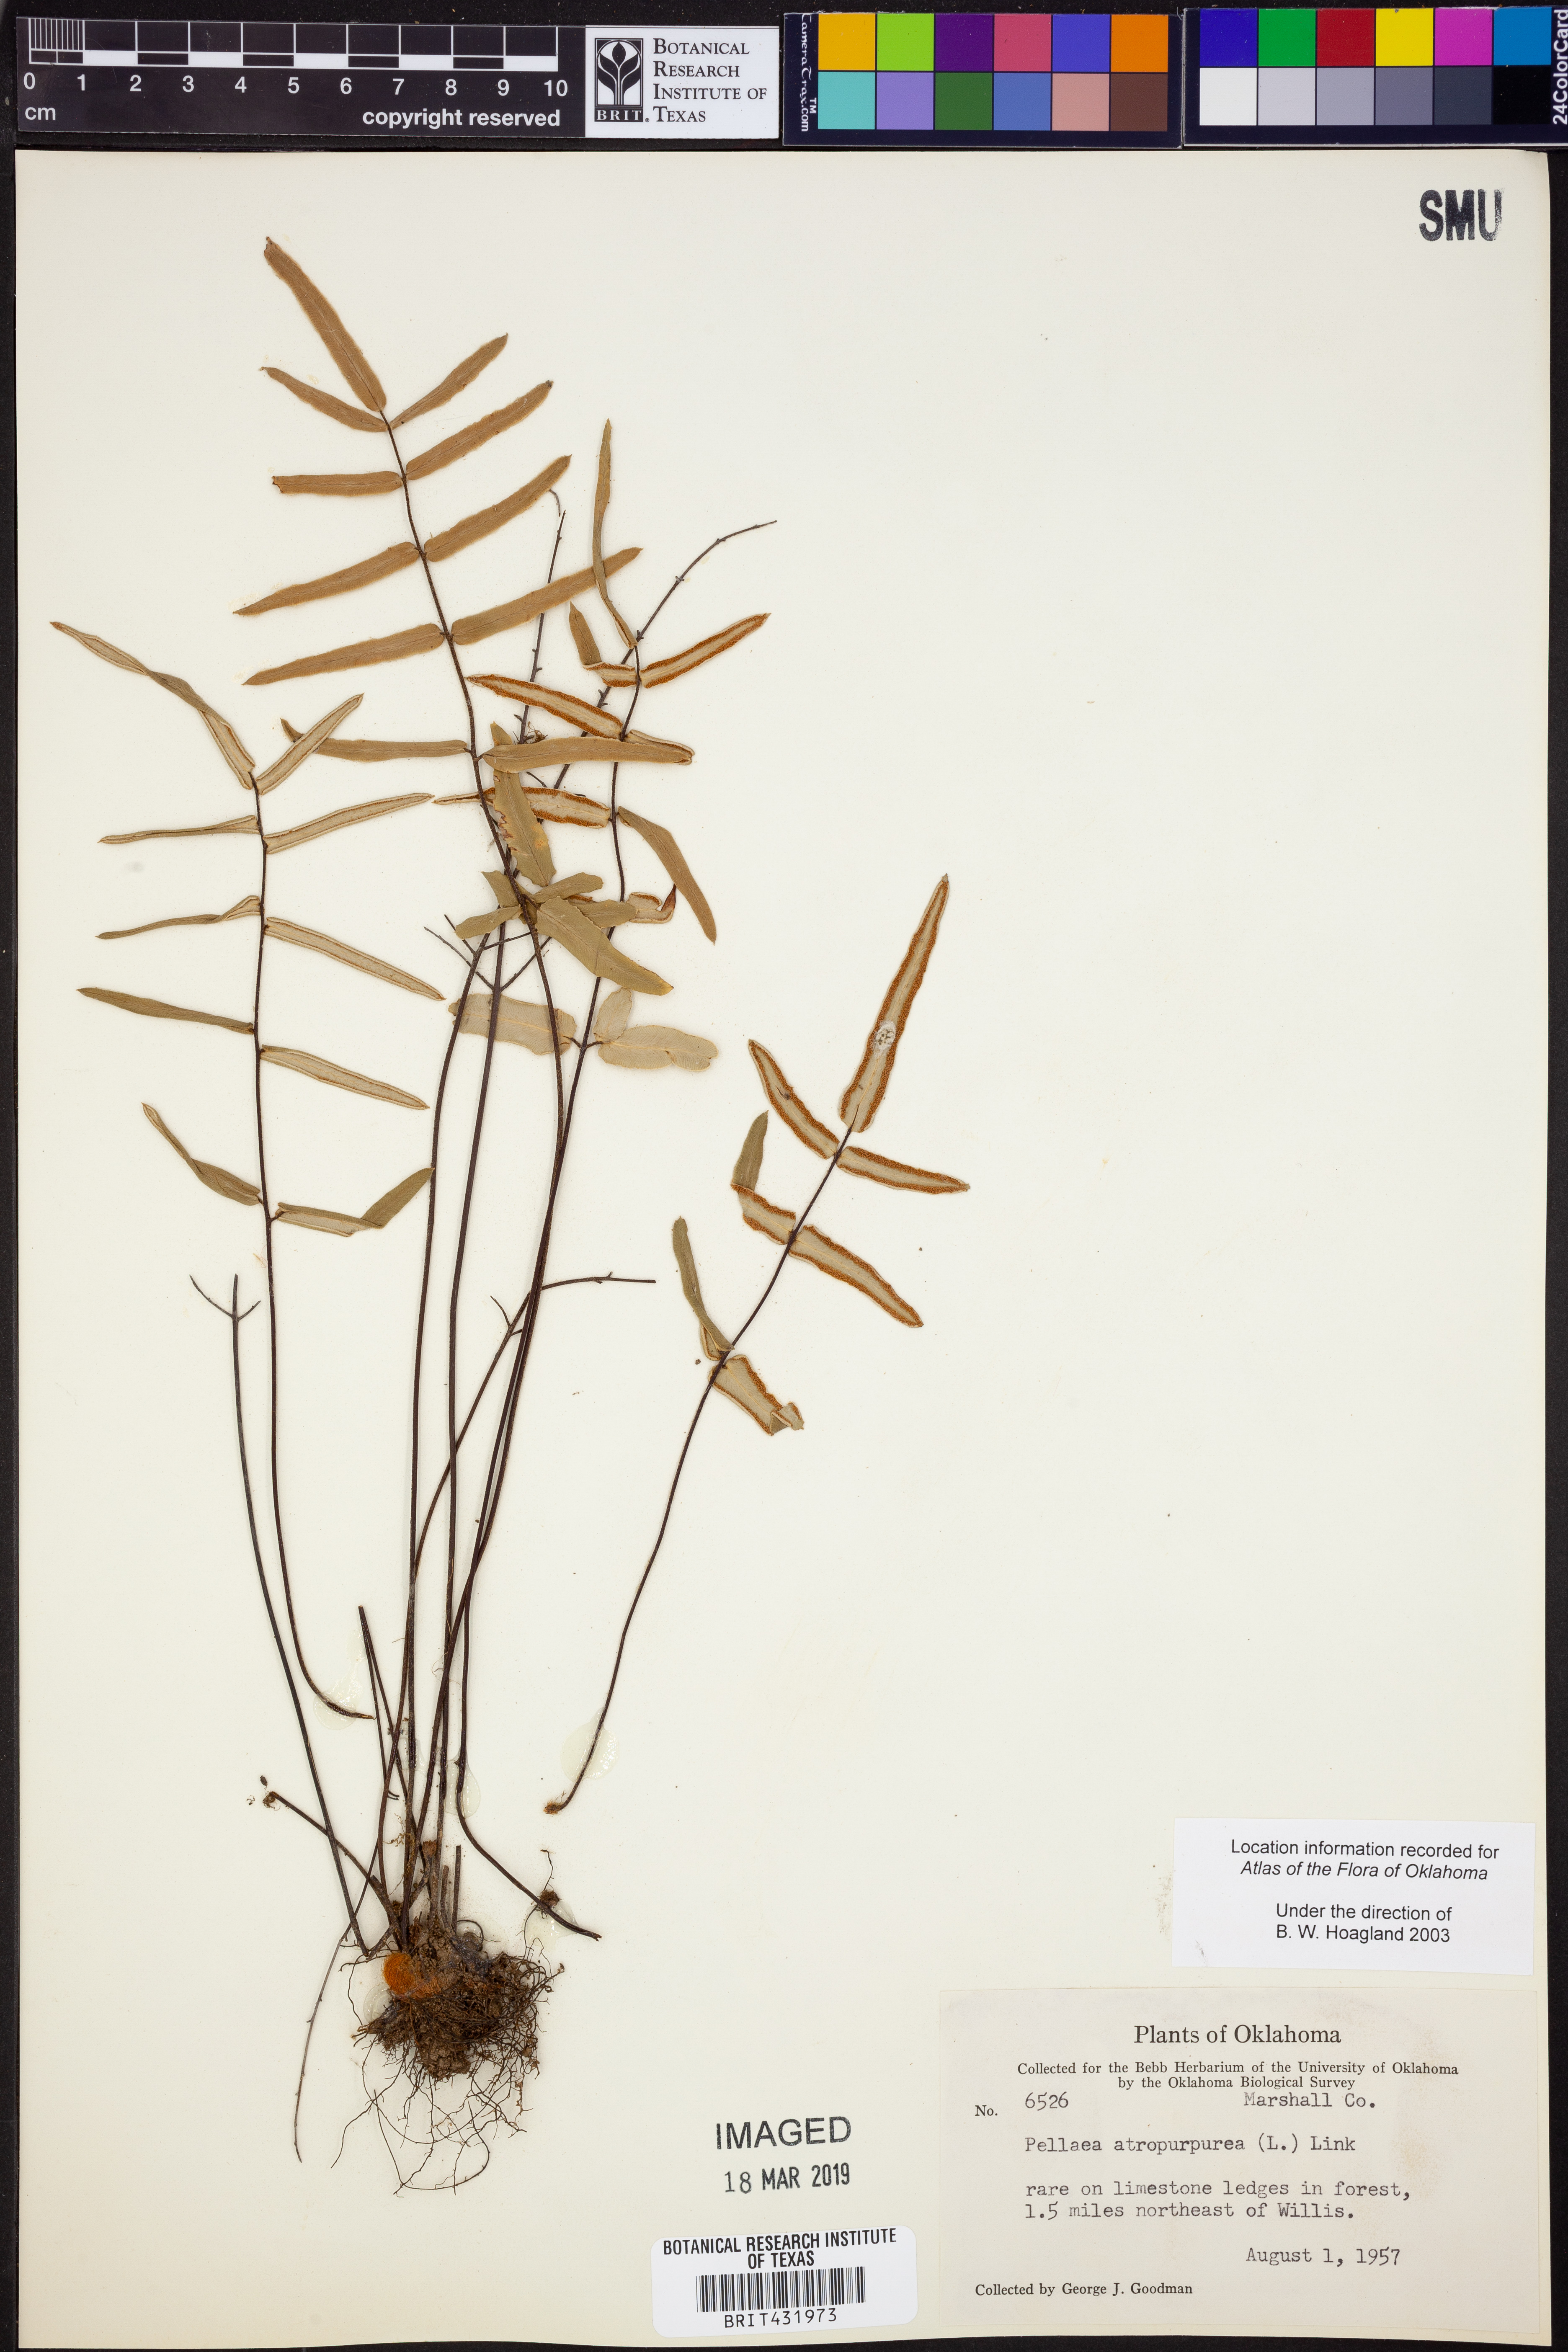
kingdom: Plantae
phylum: Tracheophyta
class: Polypodiopsida
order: Polypodiales
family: Pteridaceae
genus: Pellaea
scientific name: Pellaea atropurpurea
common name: Hairy cliffbrake
